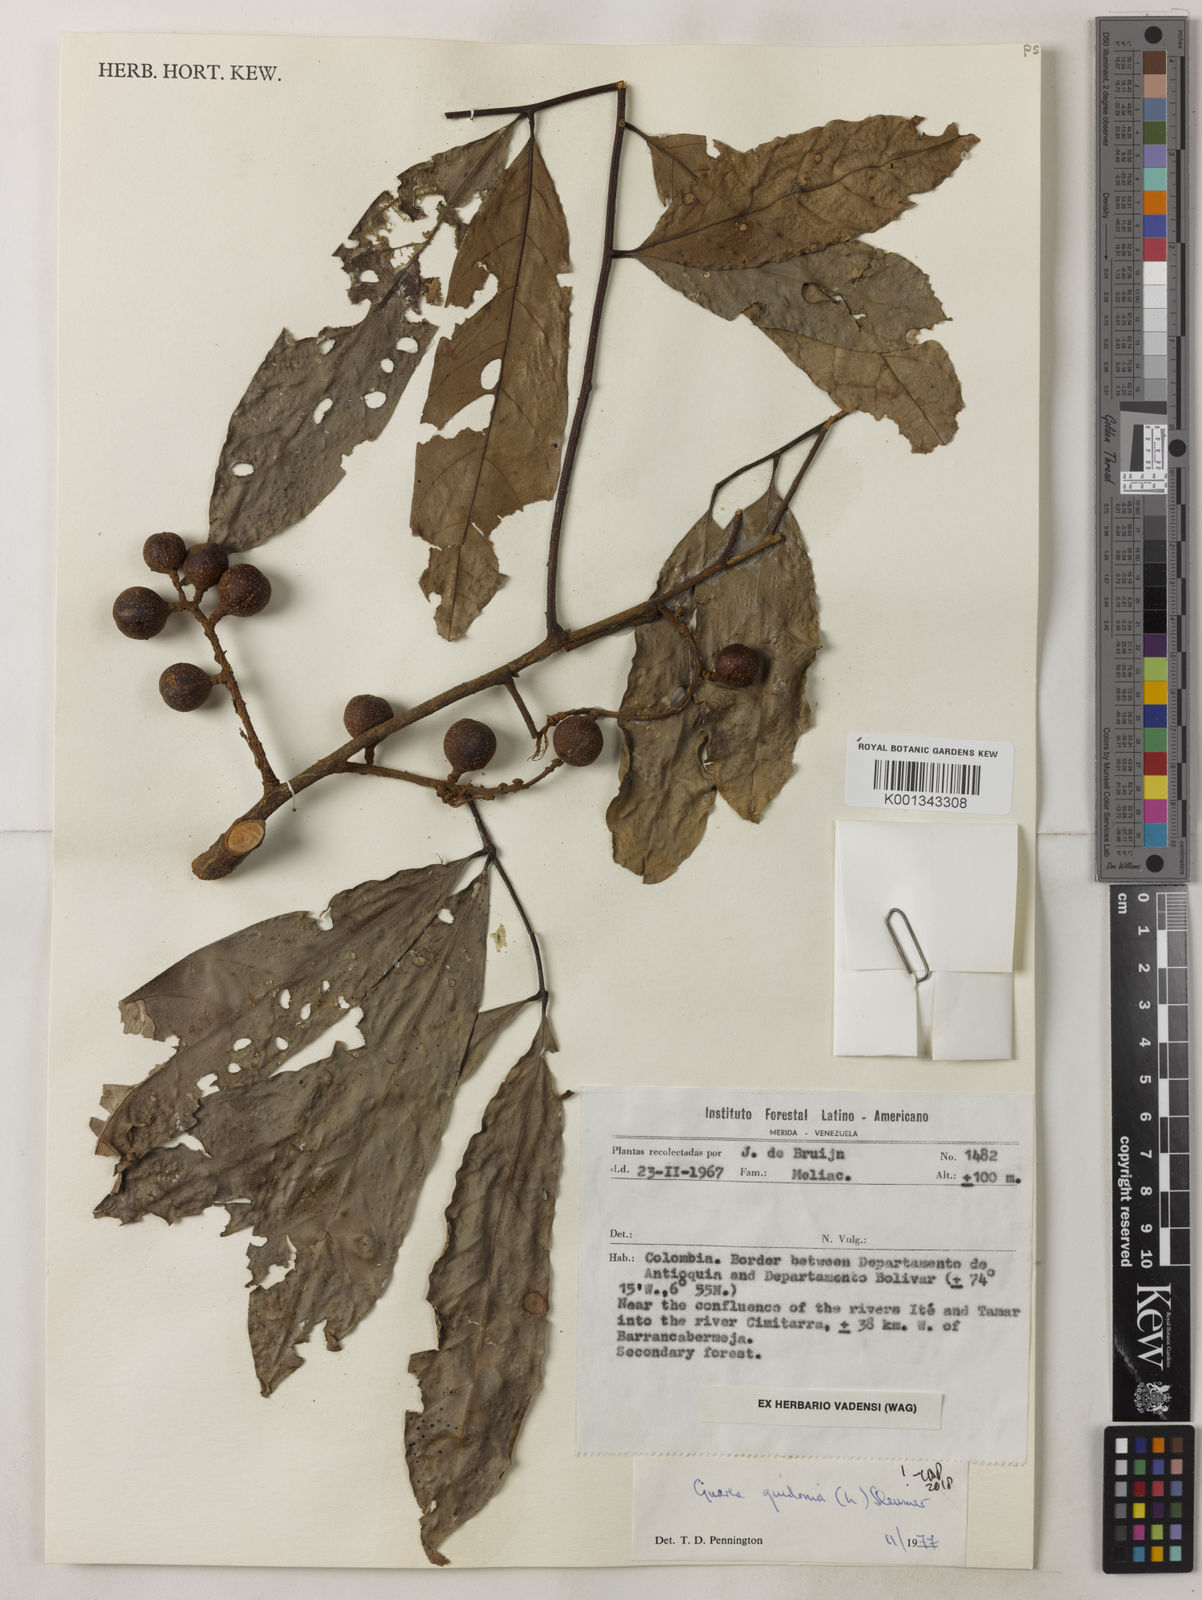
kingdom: Plantae
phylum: Tracheophyta
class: Magnoliopsida
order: Sapindales
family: Meliaceae
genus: Guarea
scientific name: Guarea guidonia
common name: American muskwood
